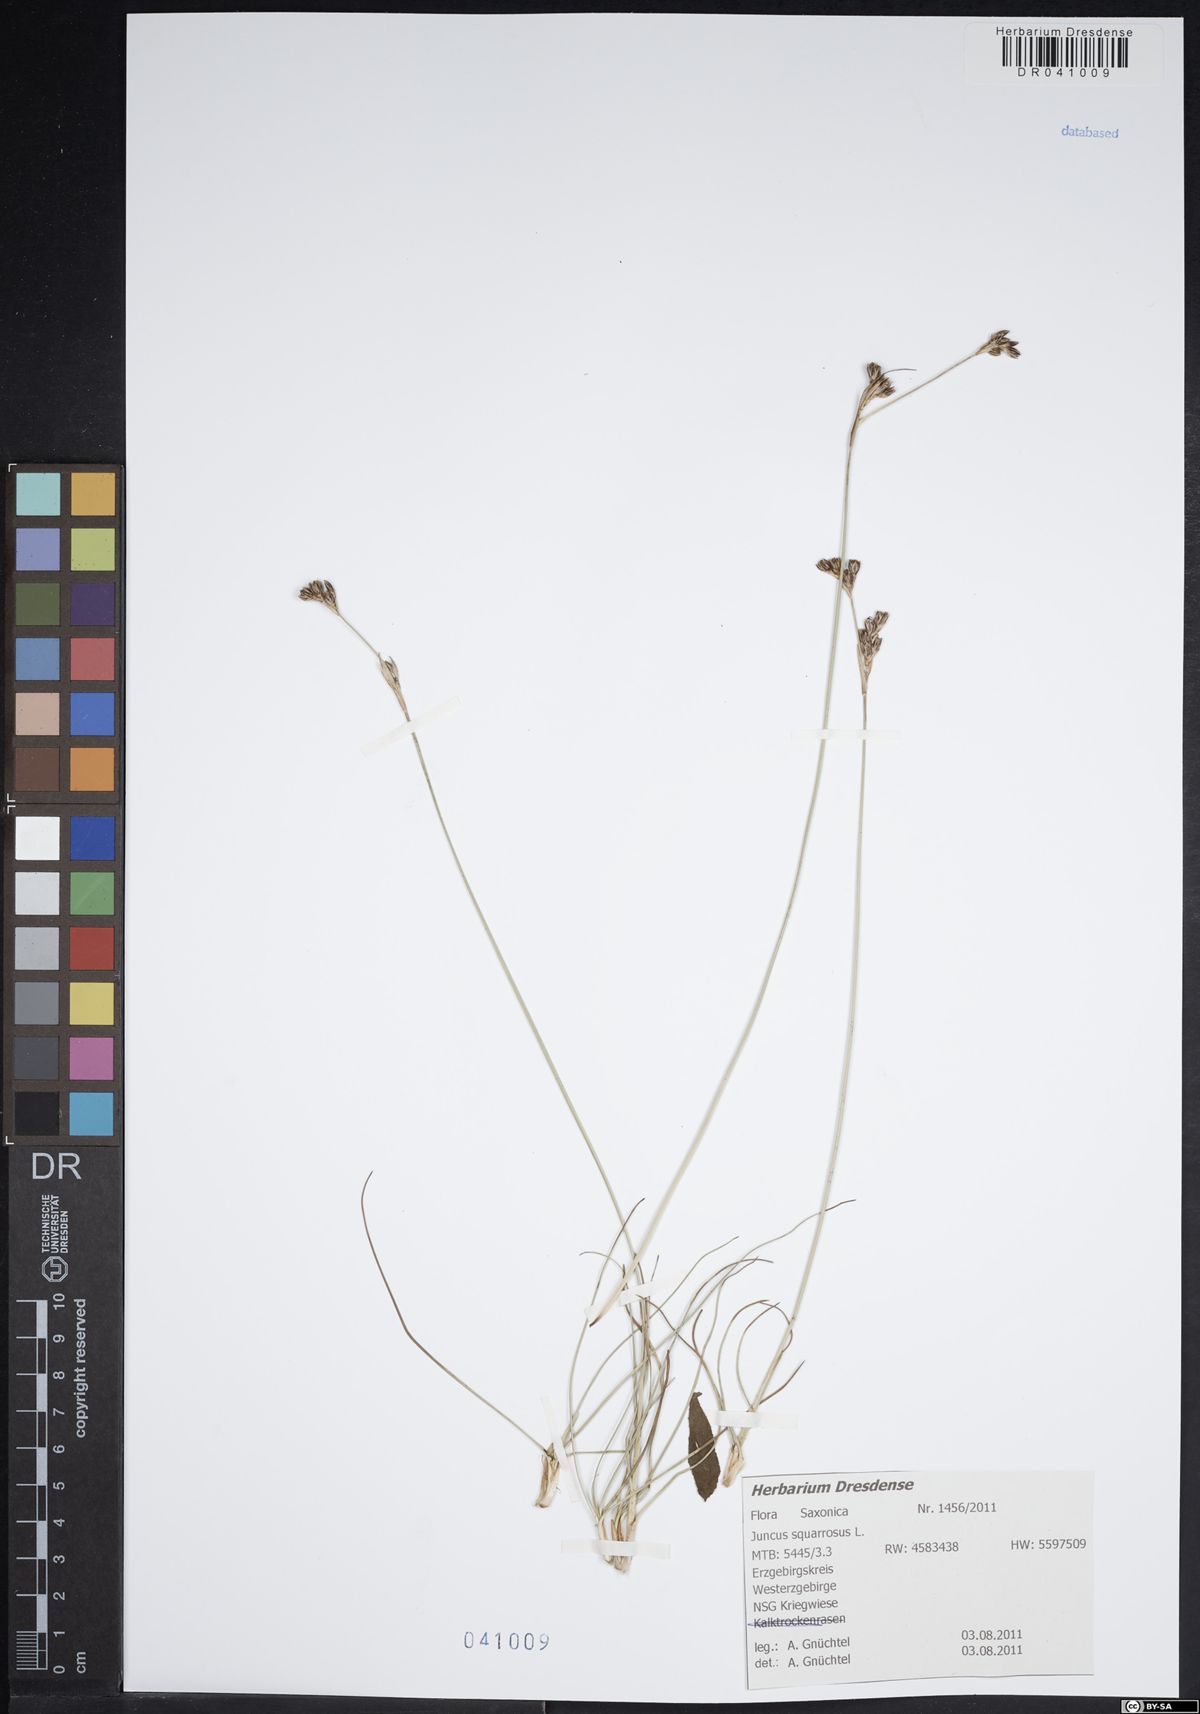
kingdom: Plantae
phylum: Tracheophyta
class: Liliopsida
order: Poales
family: Juncaceae
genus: Juncus
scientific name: Juncus squarrosus
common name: Heath rush
